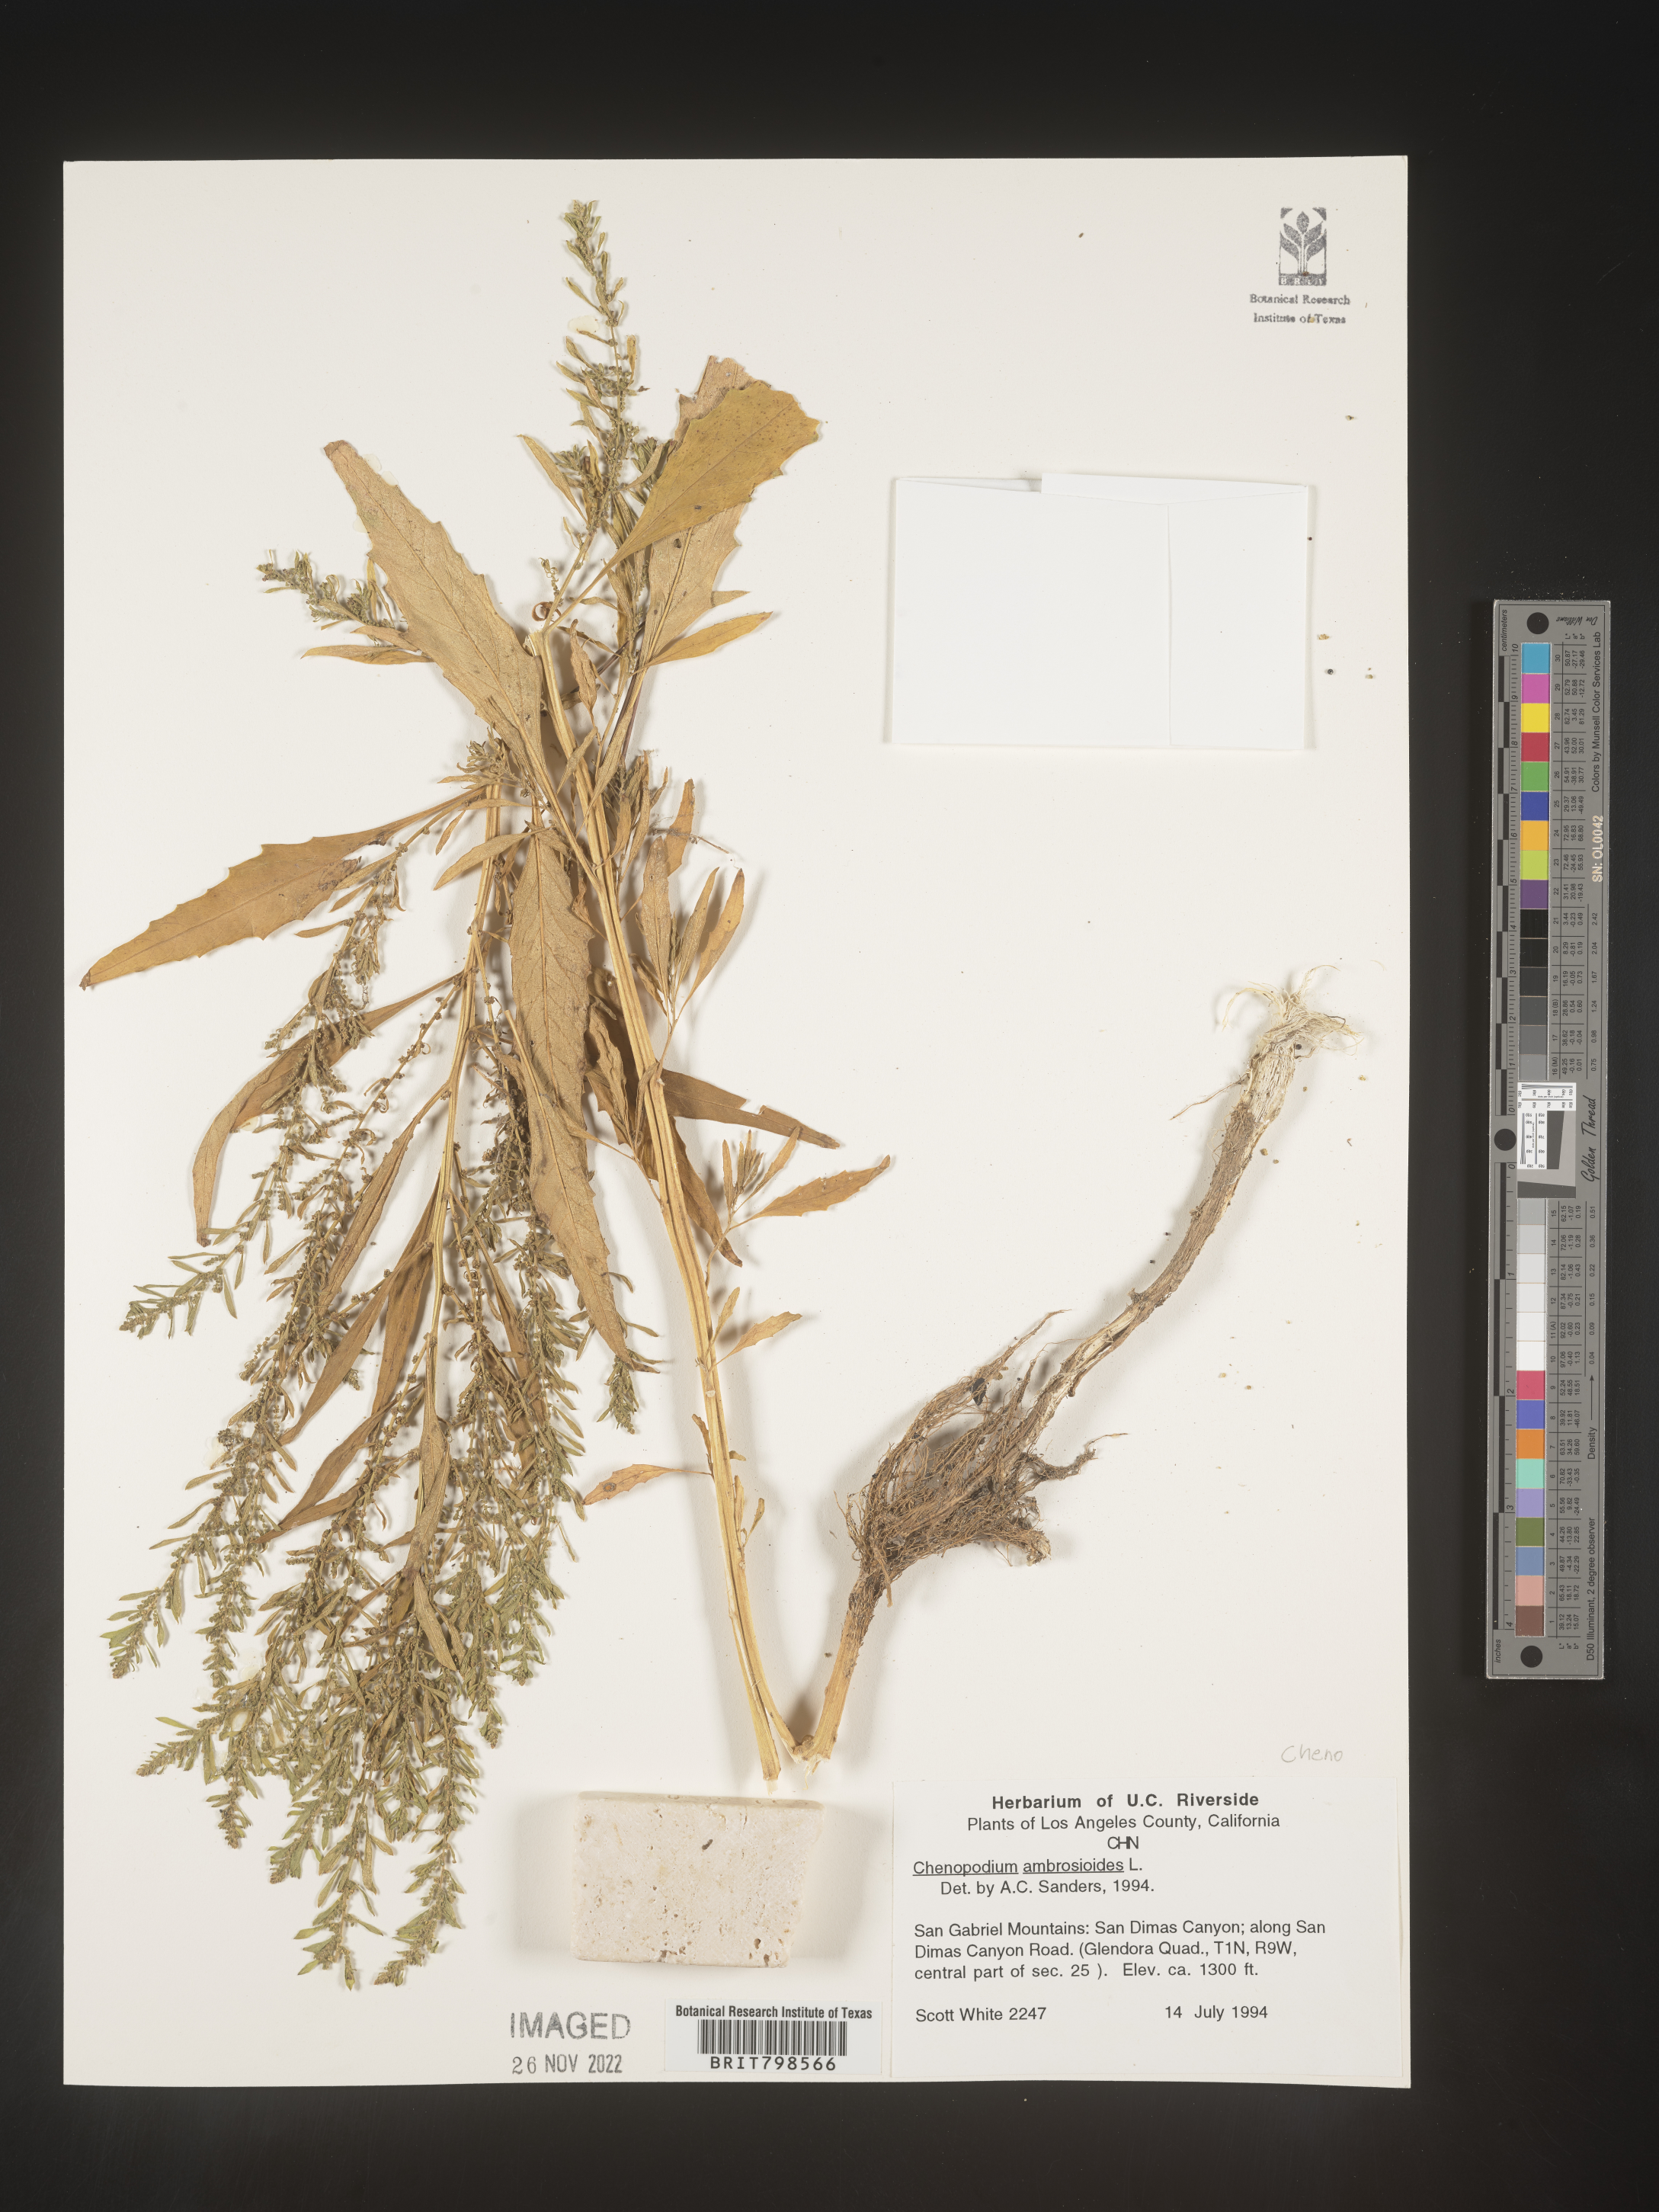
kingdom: Plantae
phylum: Tracheophyta
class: Magnoliopsida
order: Caryophyllales
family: Amaranthaceae
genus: Dysphania
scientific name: Dysphania ambrosioides
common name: Wormseed
